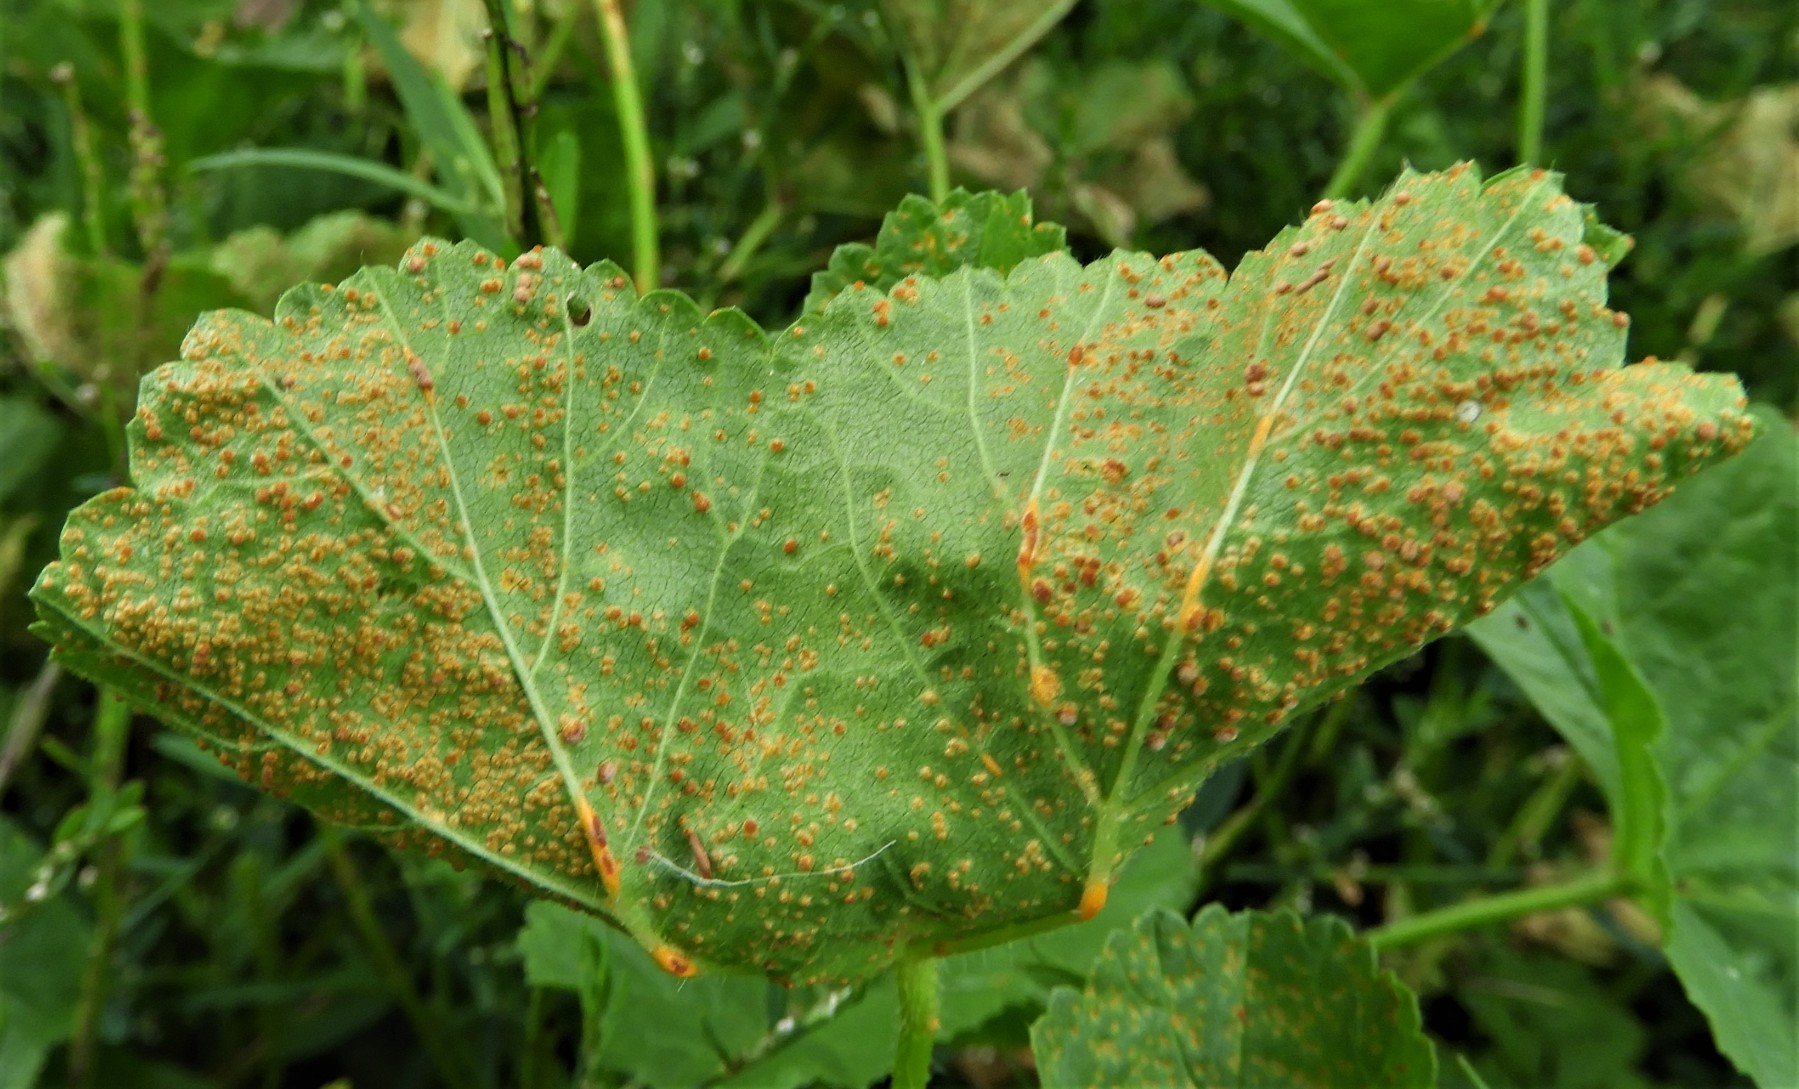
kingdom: Fungi
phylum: Basidiomycota
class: Pucciniomycetes
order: Pucciniales
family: Pucciniaceae
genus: Puccinia
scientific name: Puccinia malvacearum
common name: stokrose-tvecellerust
